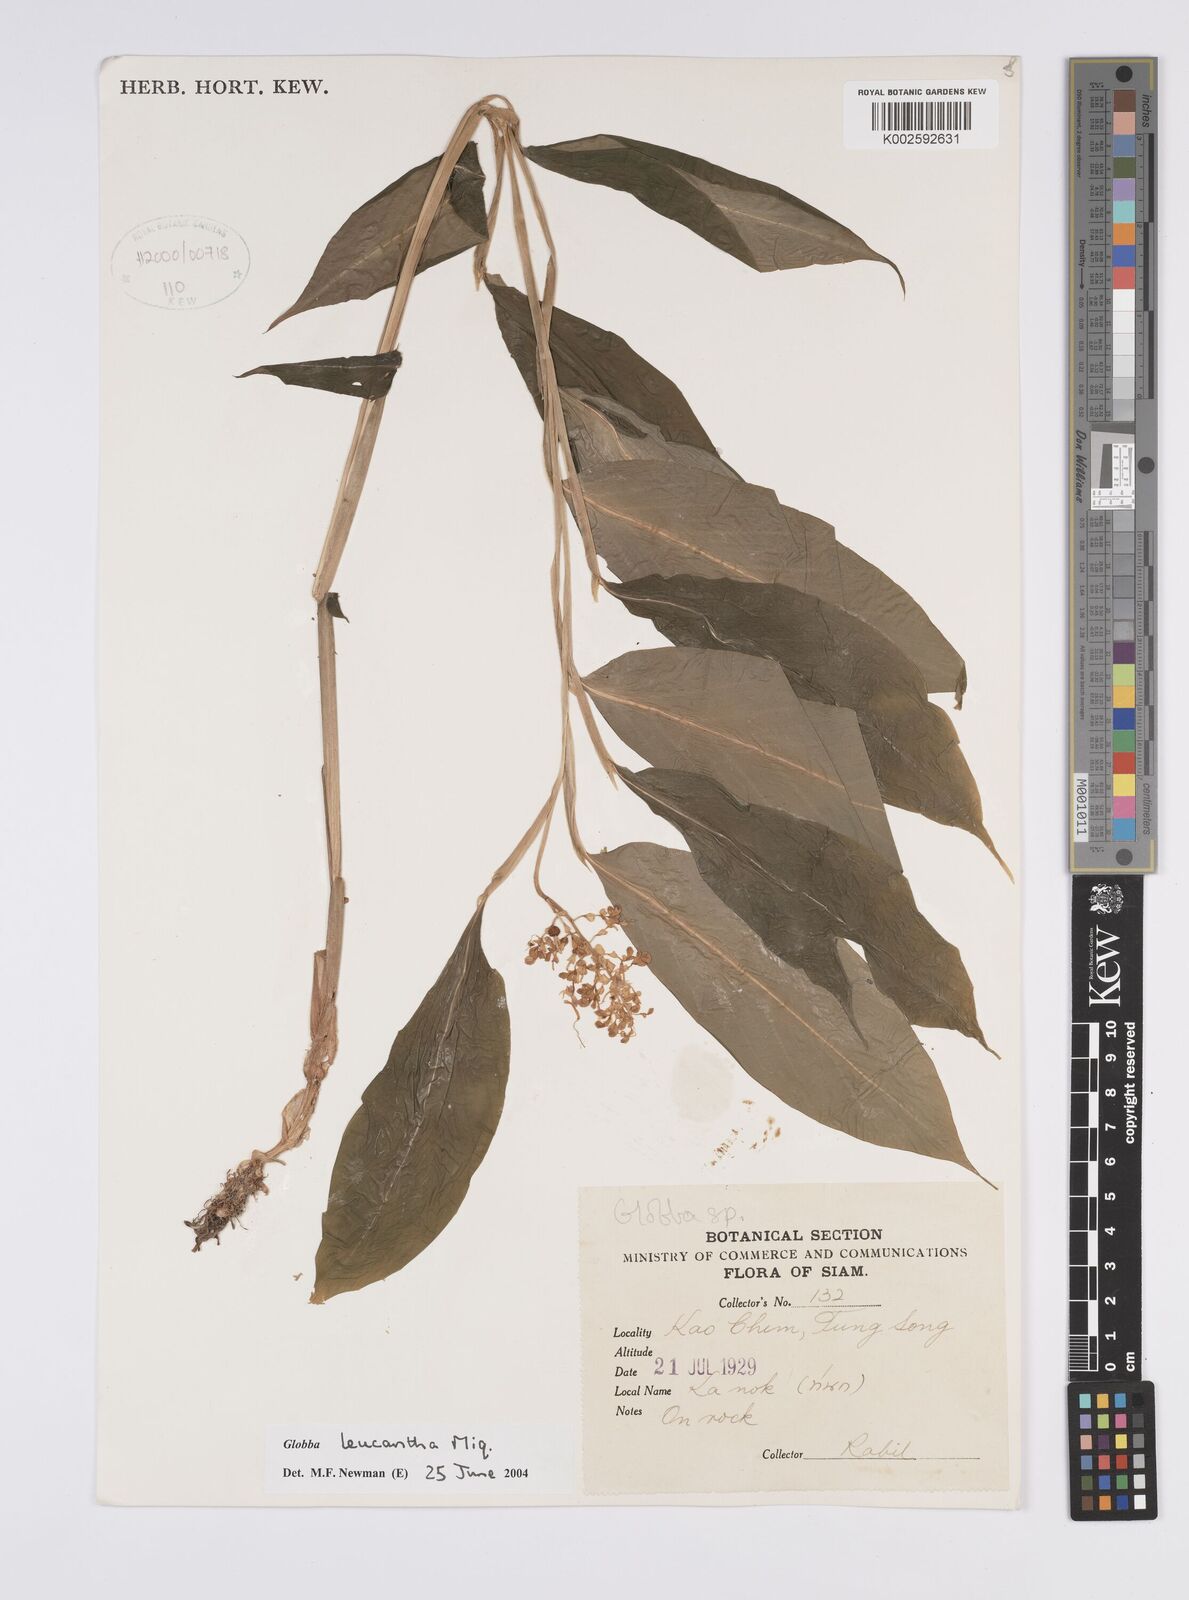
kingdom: Plantae
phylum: Tracheophyta
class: Liliopsida
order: Zingiberales
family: Zingiberaceae
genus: Globba
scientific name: Globba leucantha
